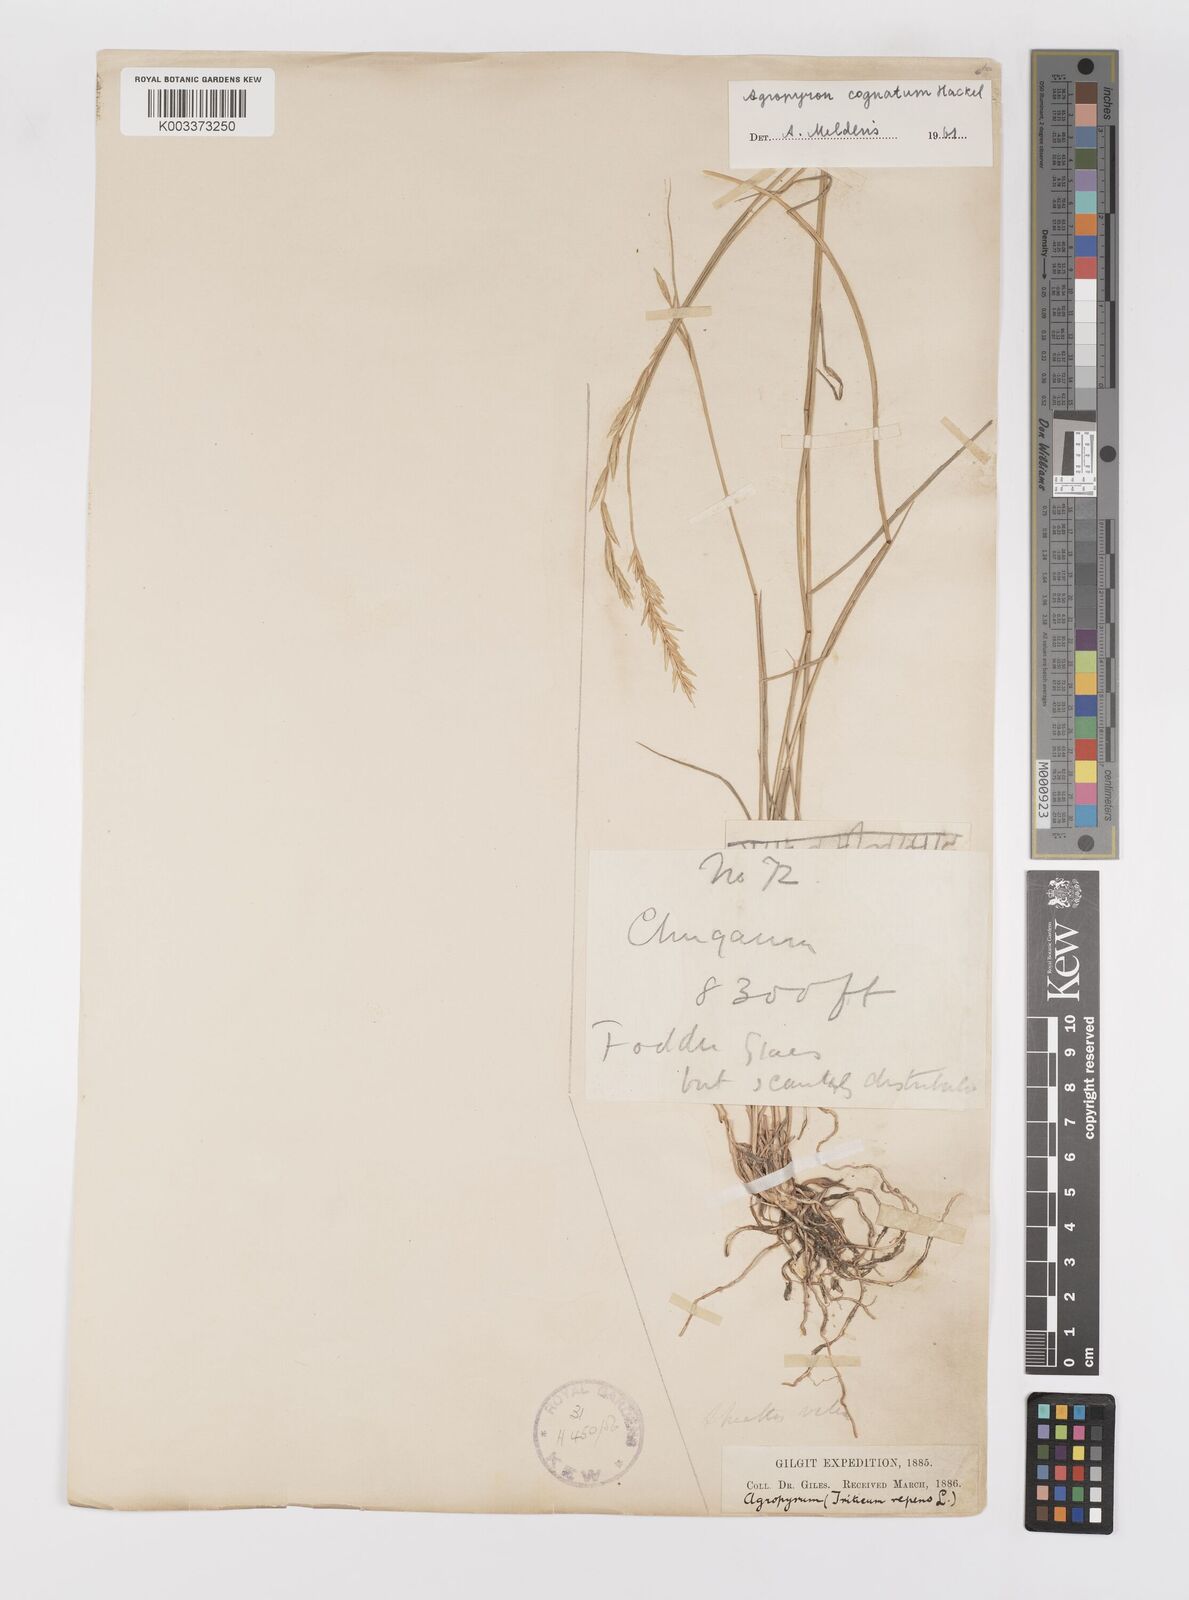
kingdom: Plantae
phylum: Tracheophyta
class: Liliopsida
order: Poales
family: Poaceae
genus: Pseudoroegneria
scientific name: Pseudoroegneria cognata
